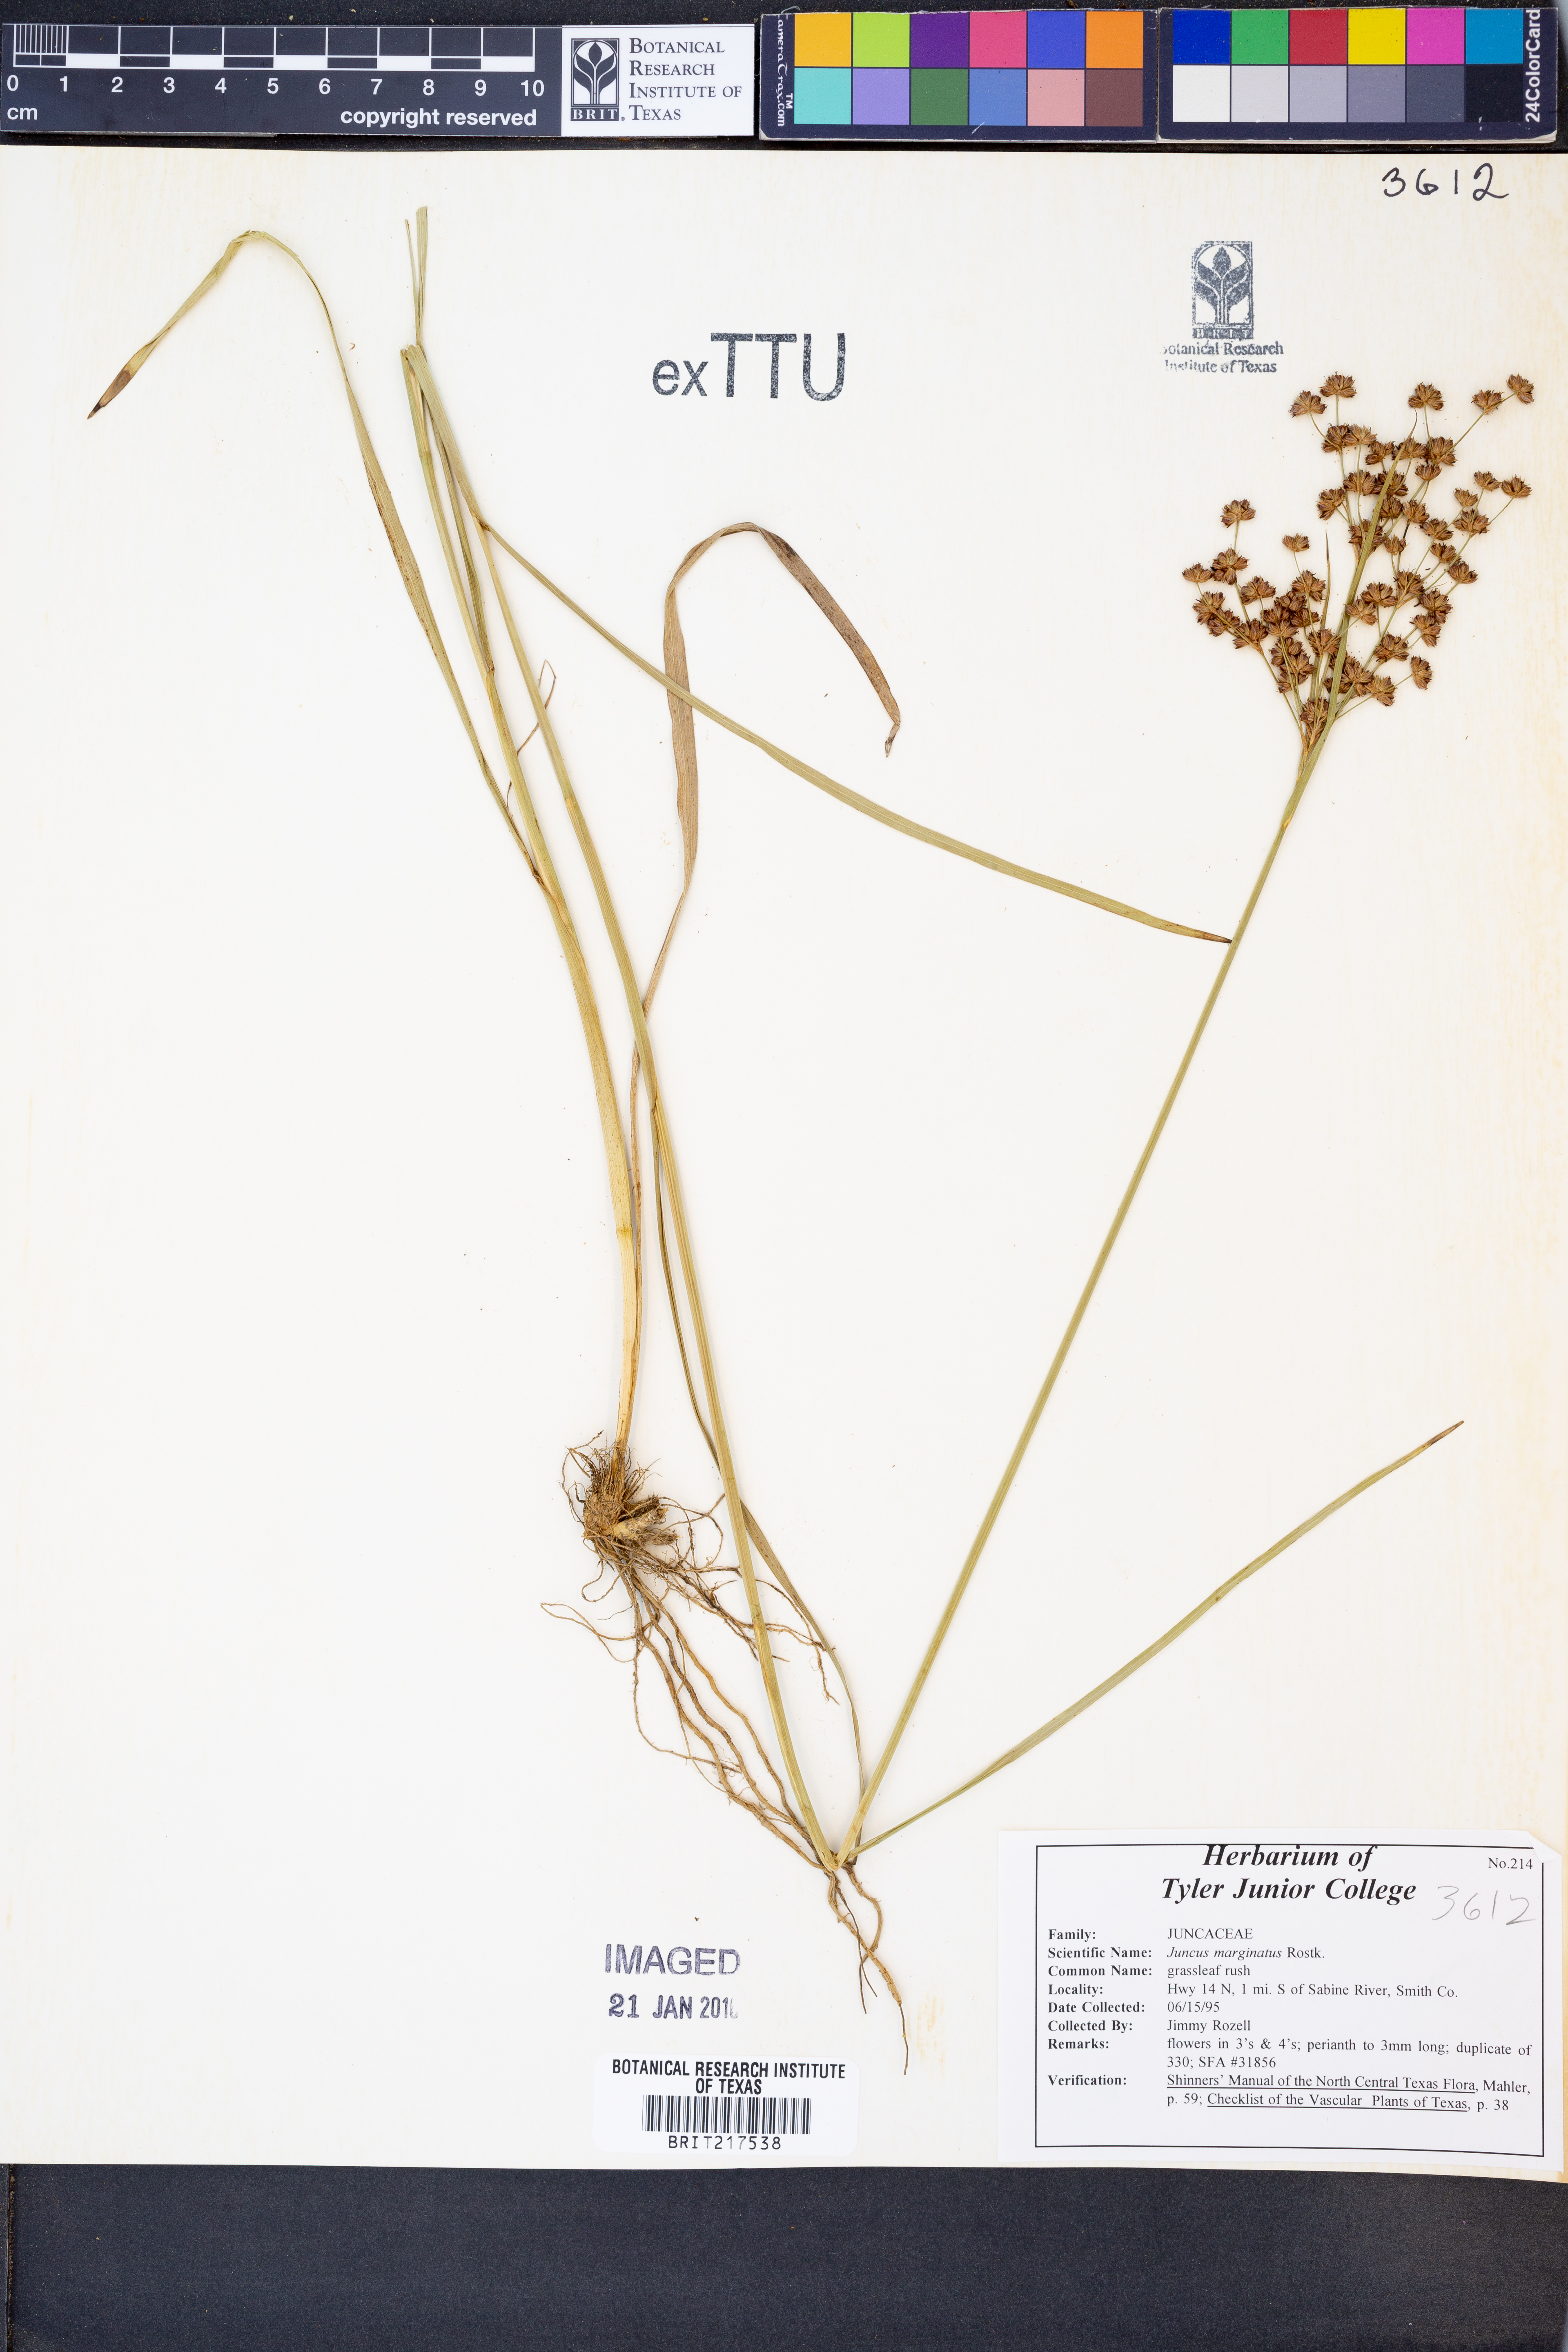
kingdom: Plantae
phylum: Tracheophyta
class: Liliopsida
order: Poales
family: Juncaceae
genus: Juncus
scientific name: Juncus marginatus
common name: Grass-leaf rush
